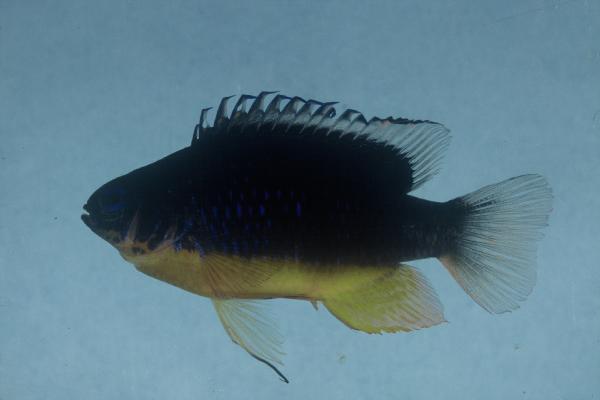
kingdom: Animalia
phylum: Chordata
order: Perciformes
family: Pomacentridae
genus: Chrysiptera
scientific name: Chrysiptera taupou
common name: Fiji damsel
